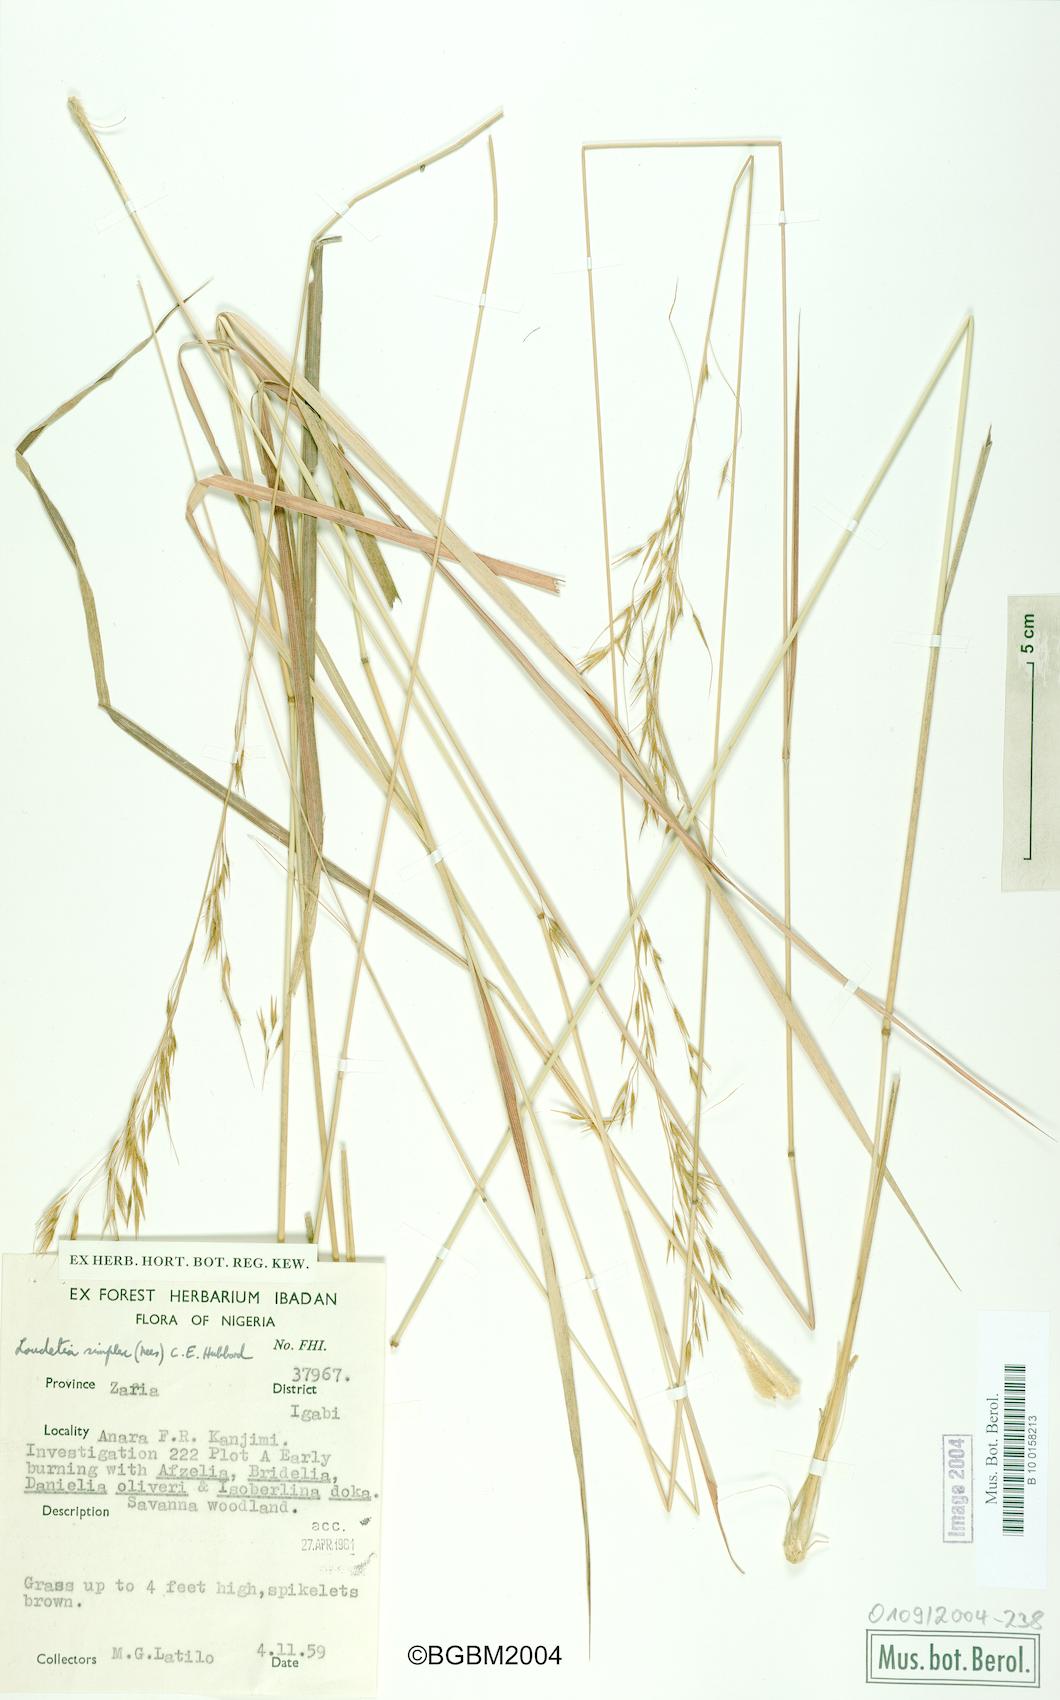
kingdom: Plantae
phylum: Tracheophyta
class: Liliopsida
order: Poales
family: Poaceae
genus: Loudetia
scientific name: Loudetia simplex
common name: Common russet grass
